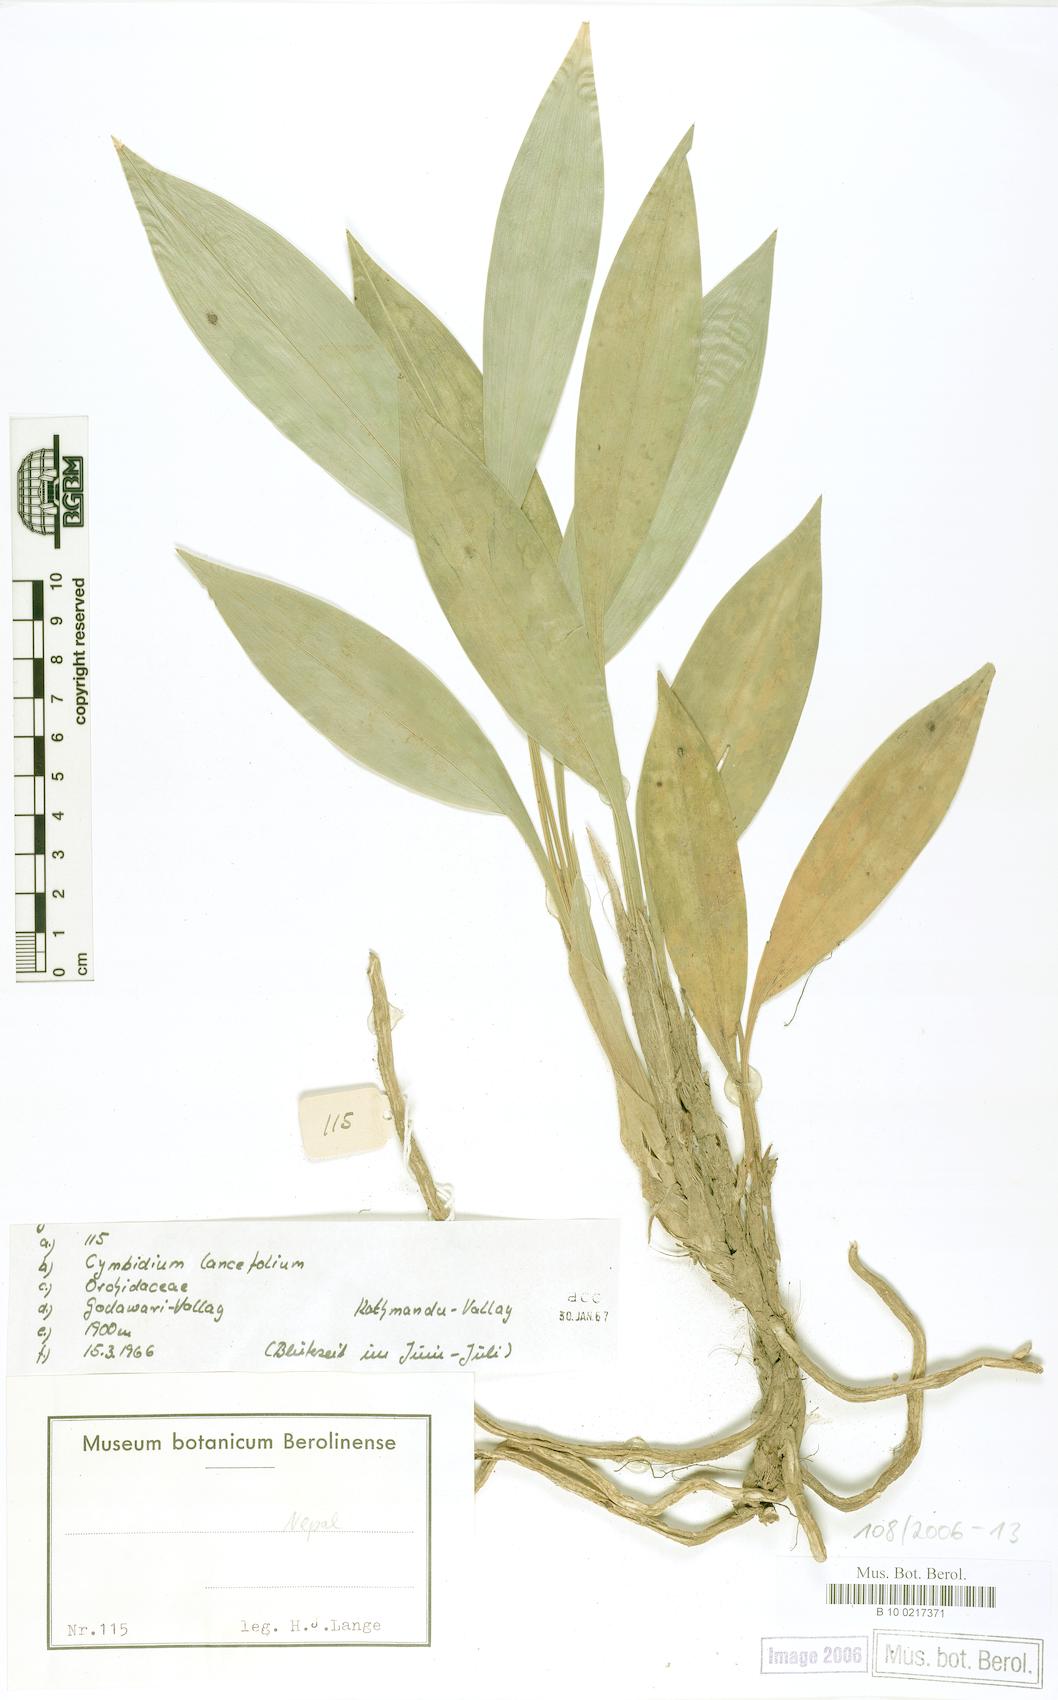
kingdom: Plantae
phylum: Tracheophyta
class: Liliopsida
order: Asparagales
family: Orchidaceae
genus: Cymbidium
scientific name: Cymbidium lancifolium
